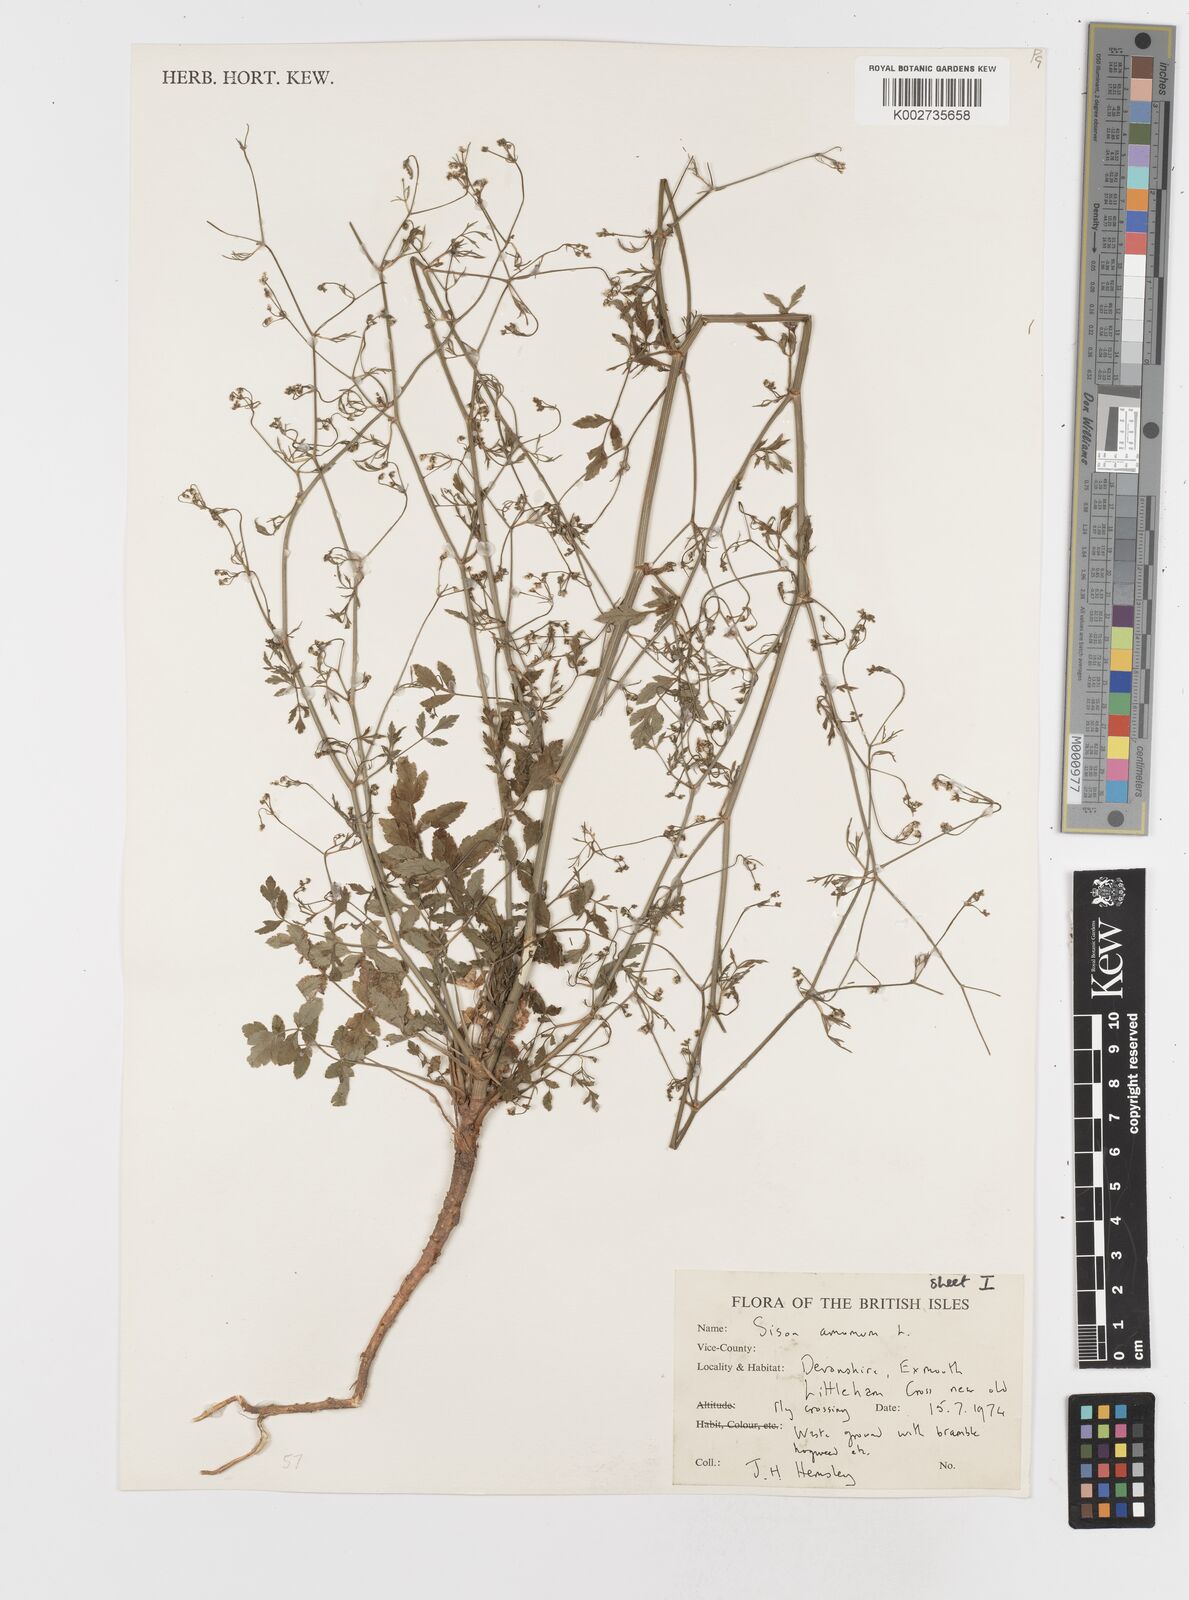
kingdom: Plantae
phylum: Tracheophyta
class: Magnoliopsida
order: Apiales
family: Apiaceae
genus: Sison
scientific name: Sison amomum
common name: Stone-parsley
